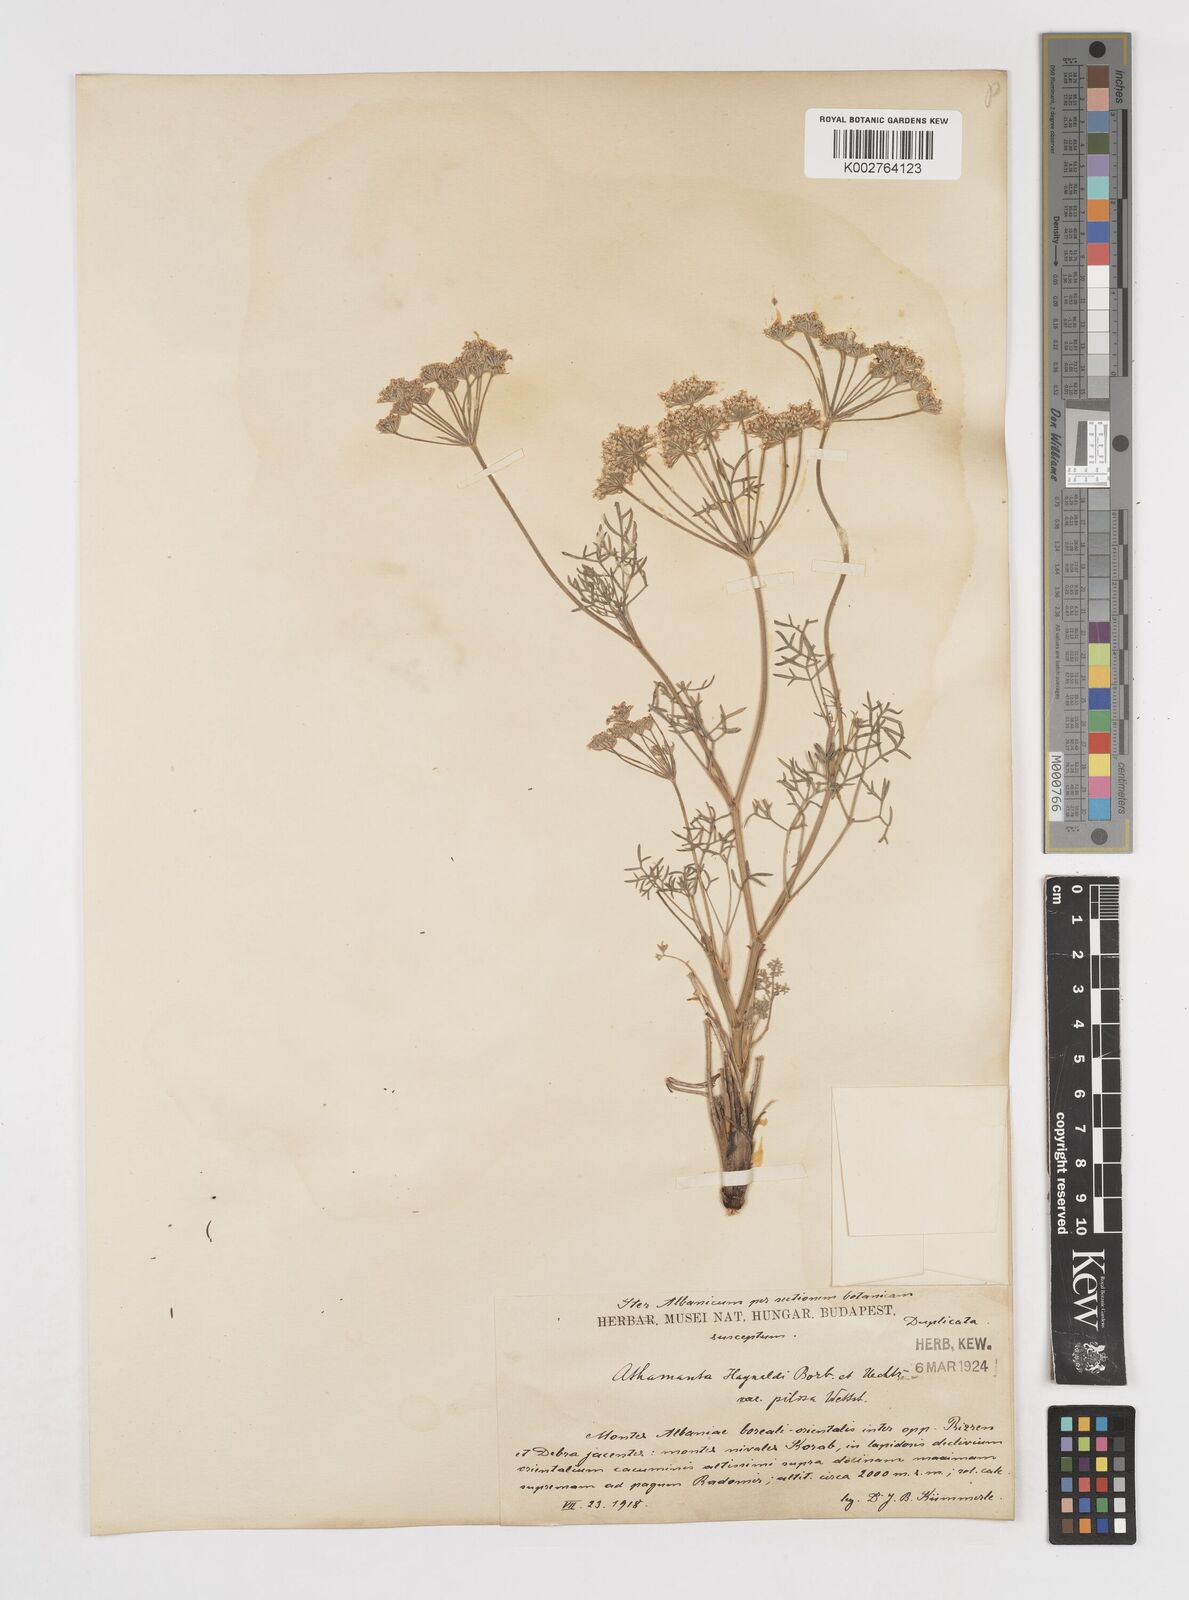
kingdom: Plantae
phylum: Tracheophyta
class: Magnoliopsida
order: Apiales
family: Apiaceae
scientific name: Apiaceae
